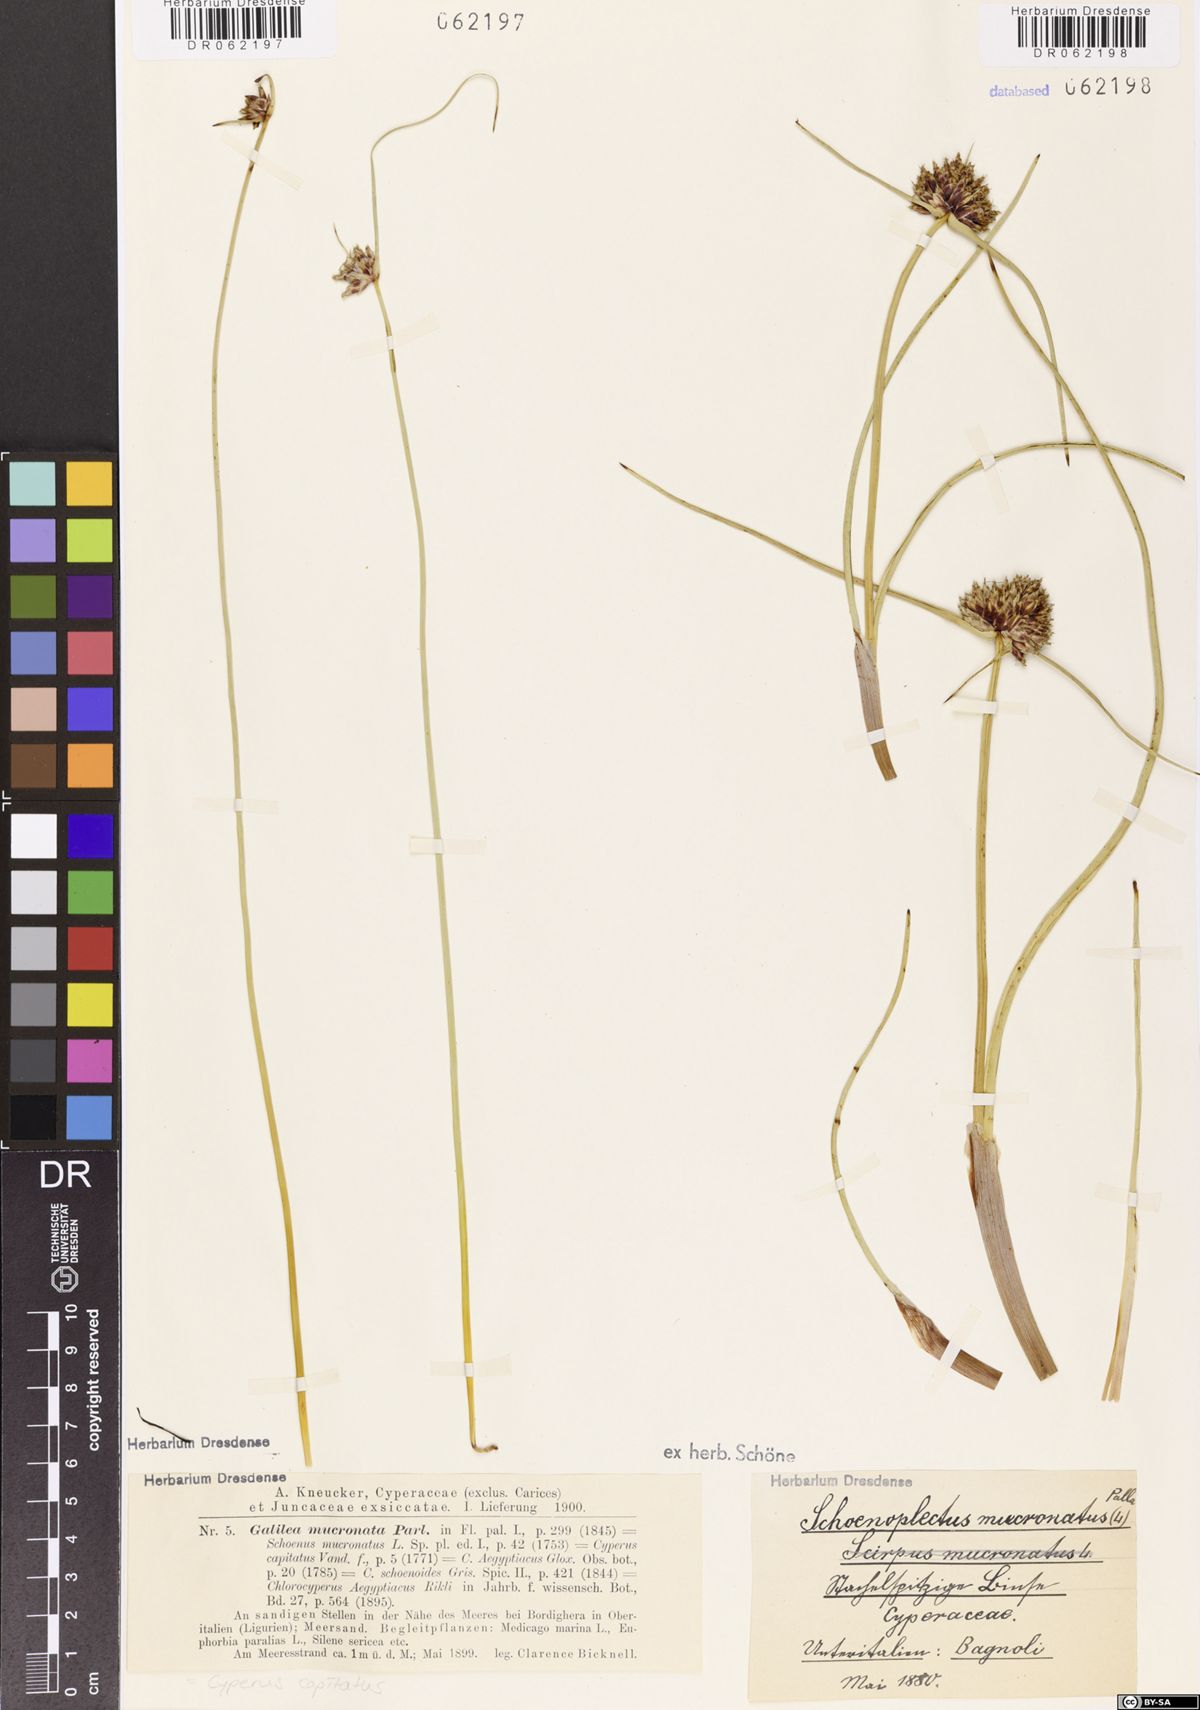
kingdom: Plantae
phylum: Tracheophyta
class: Liliopsida
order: Poales
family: Cyperaceae
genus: Schoenoplectiella
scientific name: Schoenoplectiella mucronata
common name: Bog bulrush
